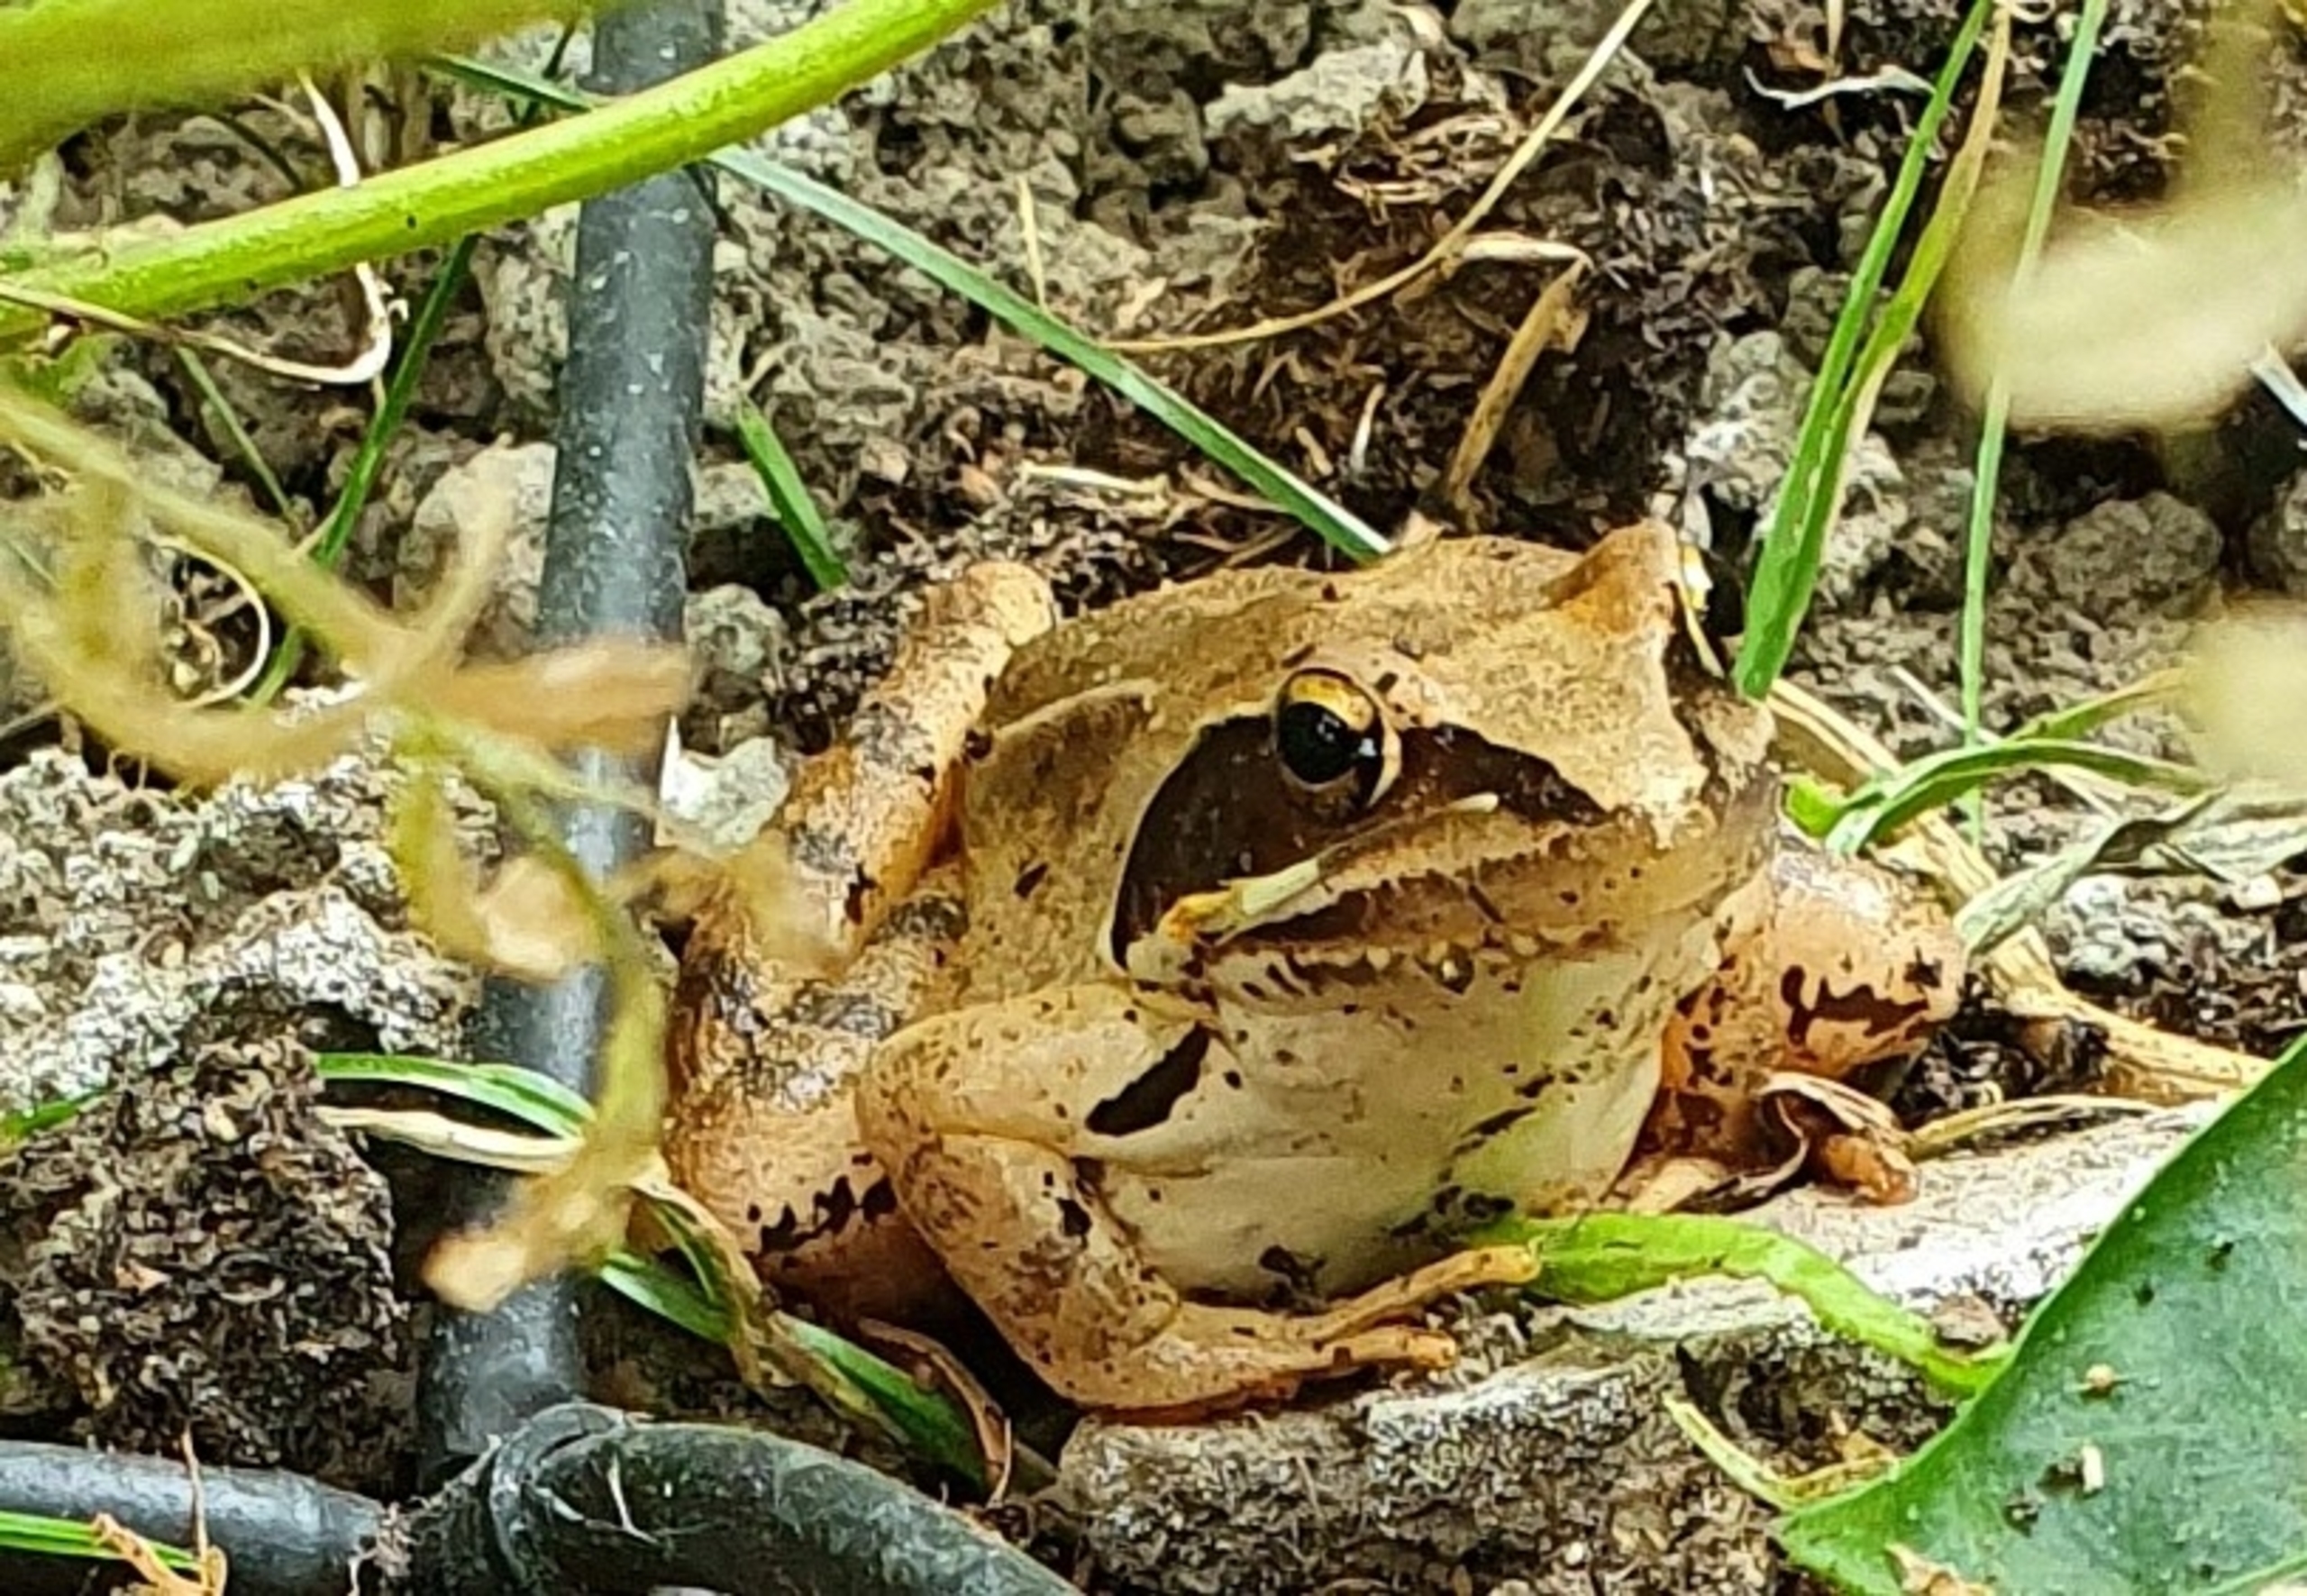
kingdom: Animalia
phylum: Chordata
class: Amphibia
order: Anura
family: Ranidae
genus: Rana
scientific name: Rana dalmatina
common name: Springfrø
